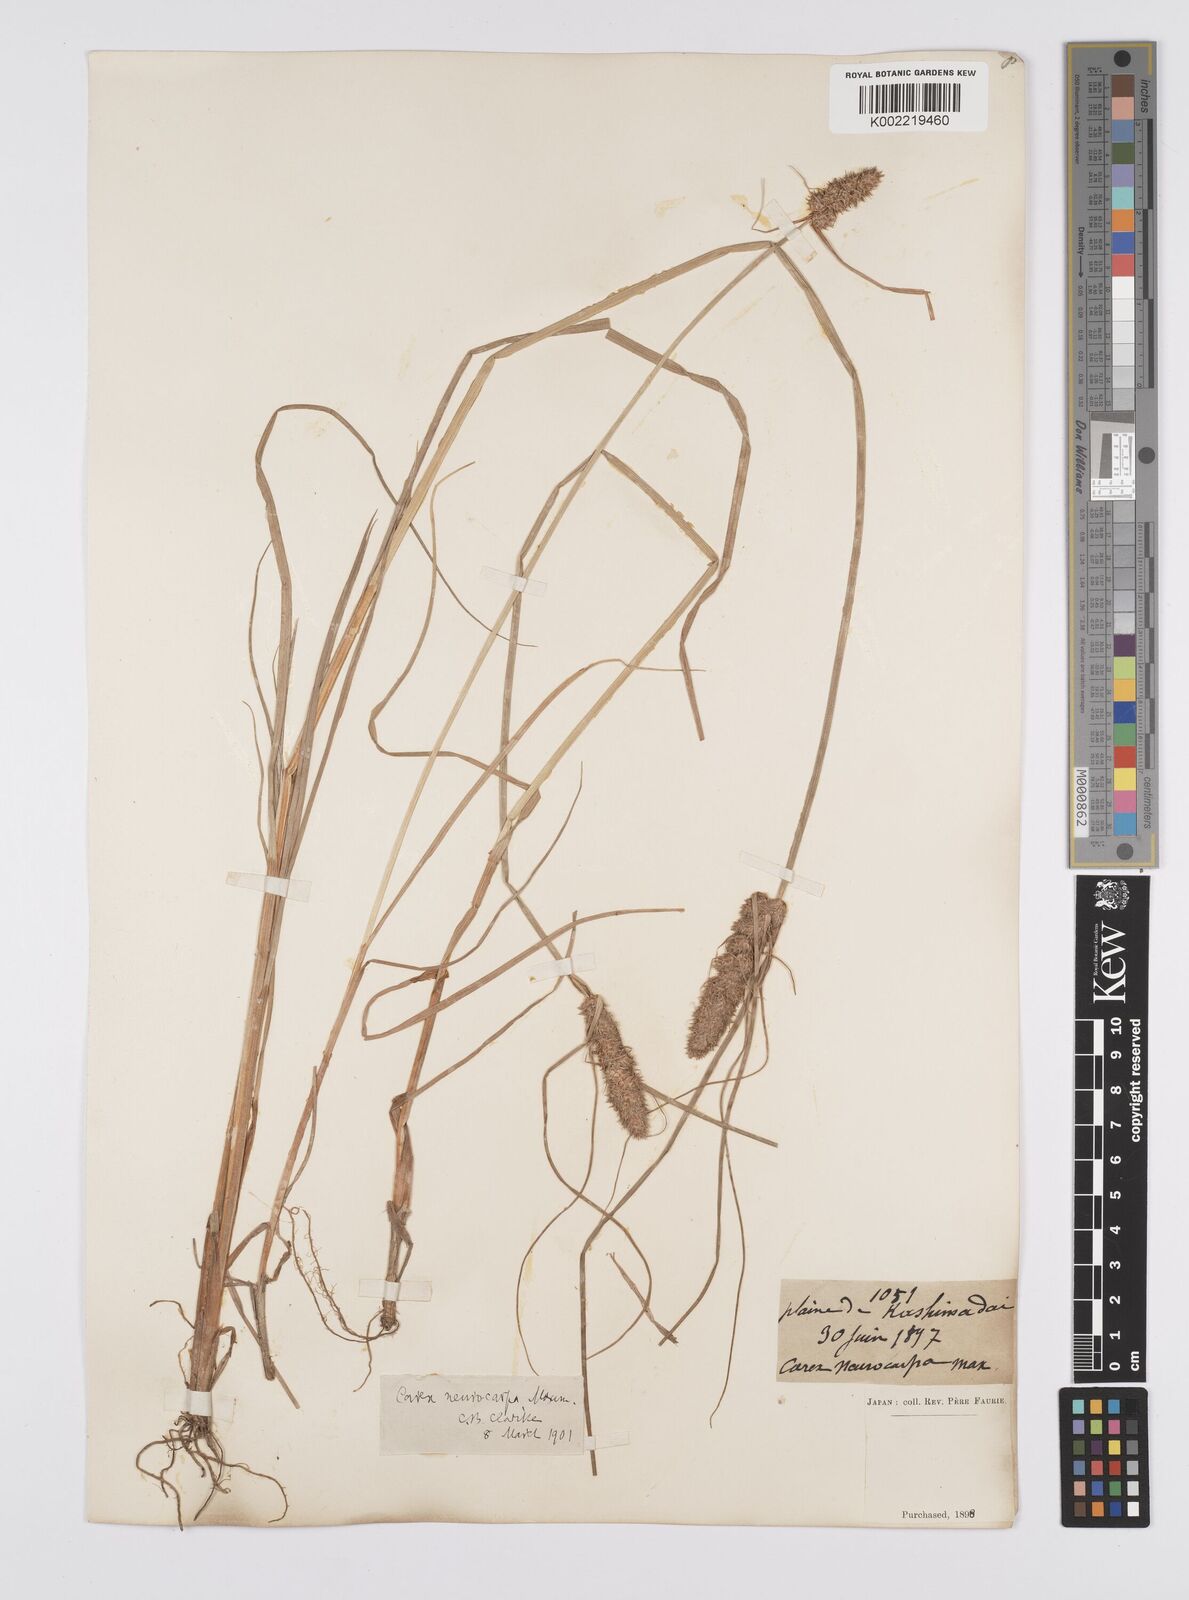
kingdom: Plantae
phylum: Tracheophyta
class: Liliopsida
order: Poales
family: Cyperaceae
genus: Carex
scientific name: Carex neurocarpa
